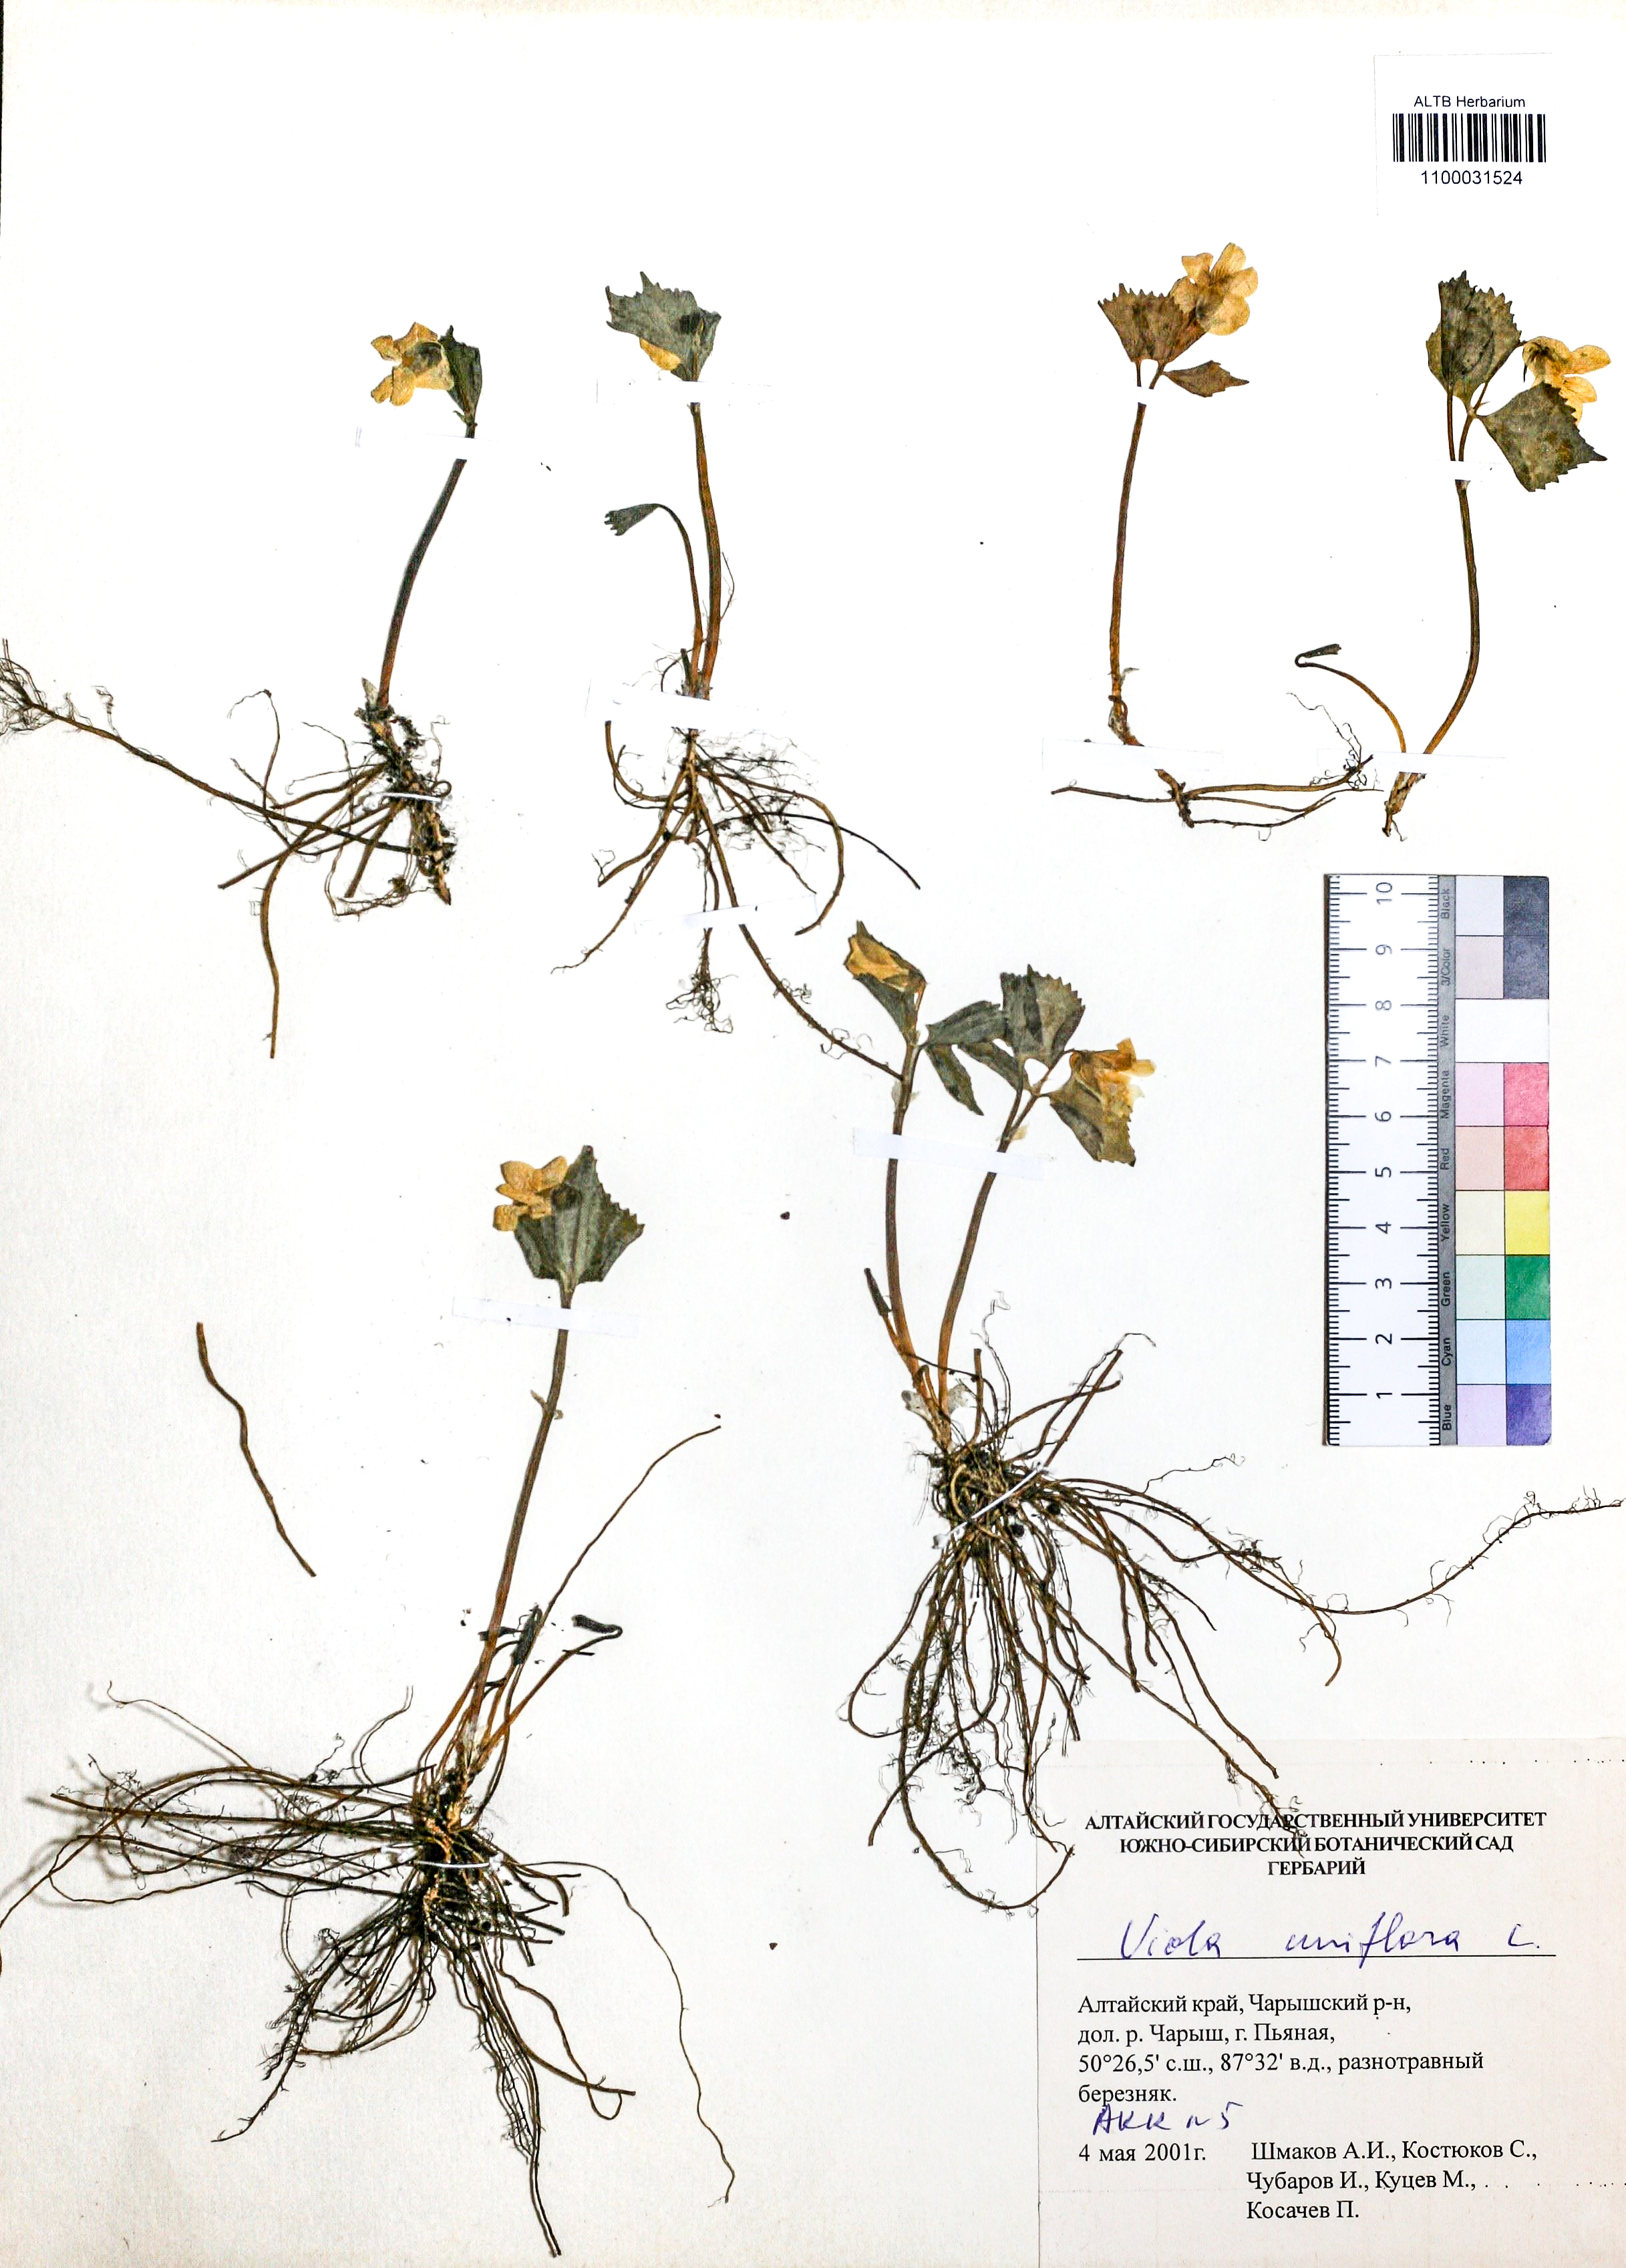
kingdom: Plantae
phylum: Tracheophyta
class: Magnoliopsida
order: Malpighiales
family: Violaceae
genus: Viola
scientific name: Viola uniflora
